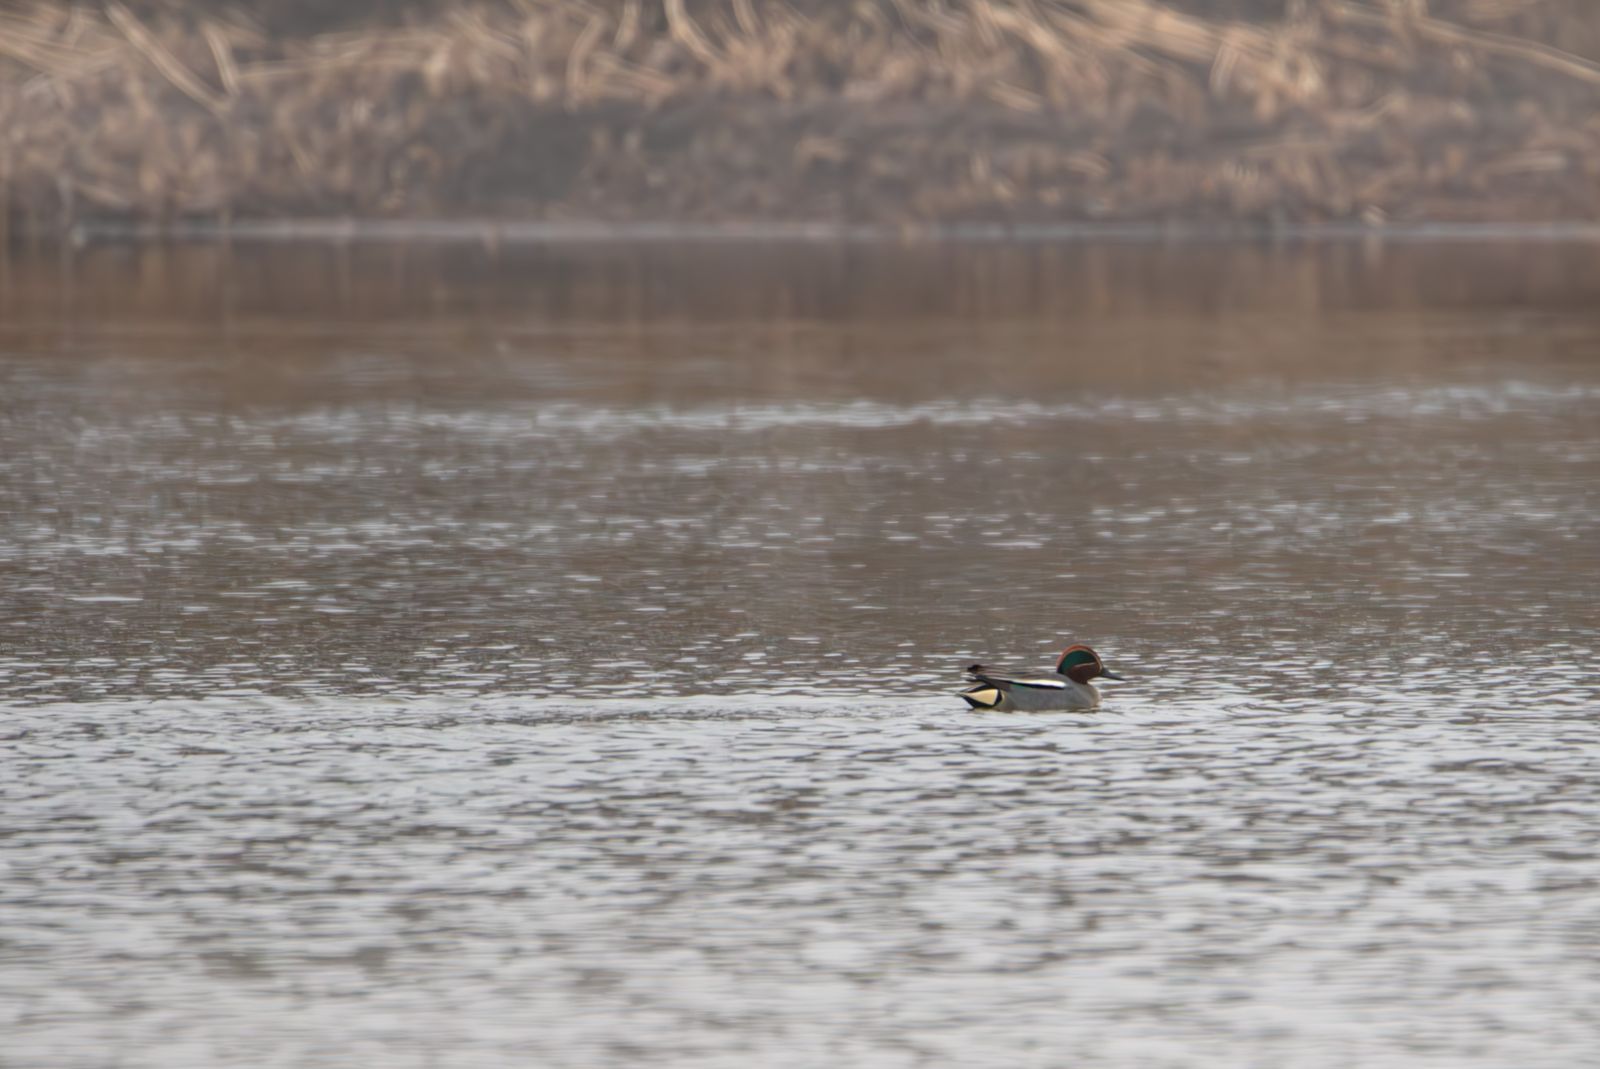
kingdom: Animalia
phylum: Chordata
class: Aves
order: Anseriformes
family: Anatidae
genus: Anas
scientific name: Anas crecca
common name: Eurasian teal
